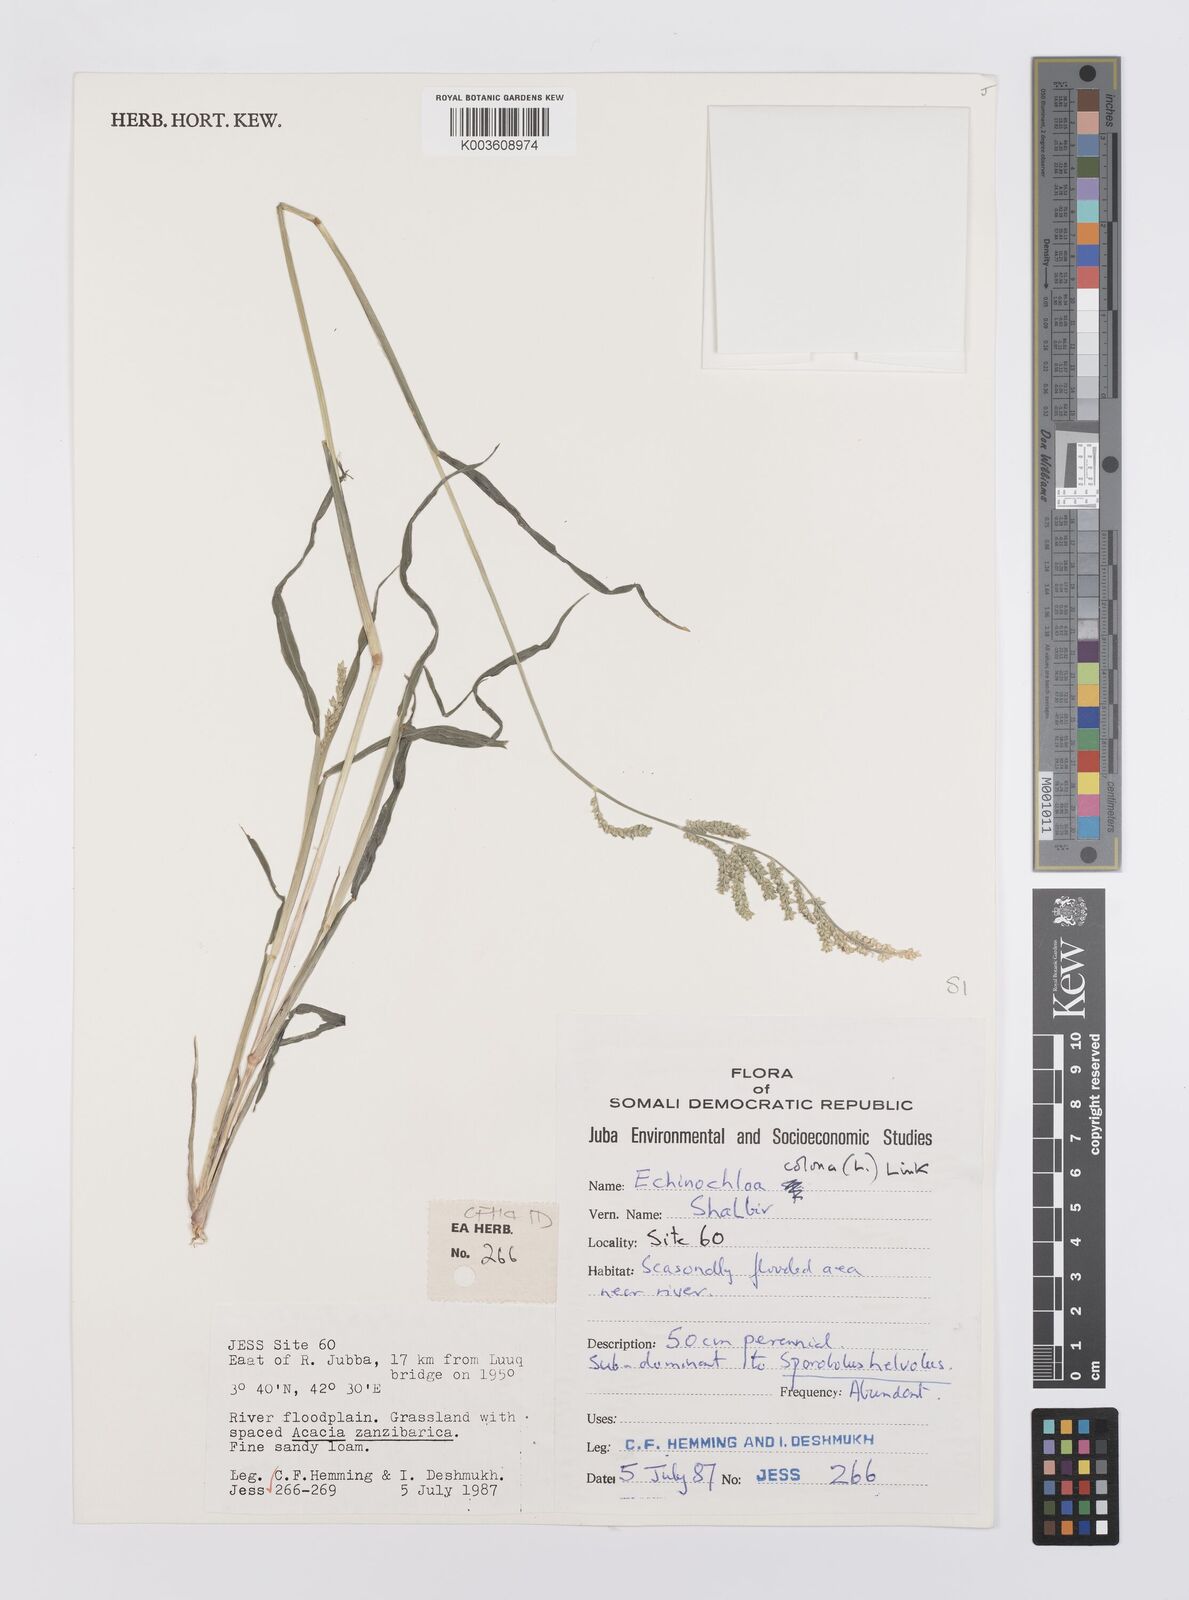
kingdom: Plantae
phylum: Tracheophyta
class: Liliopsida
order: Poales
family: Poaceae
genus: Echinochloa
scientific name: Echinochloa colonum
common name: Jungle rice
